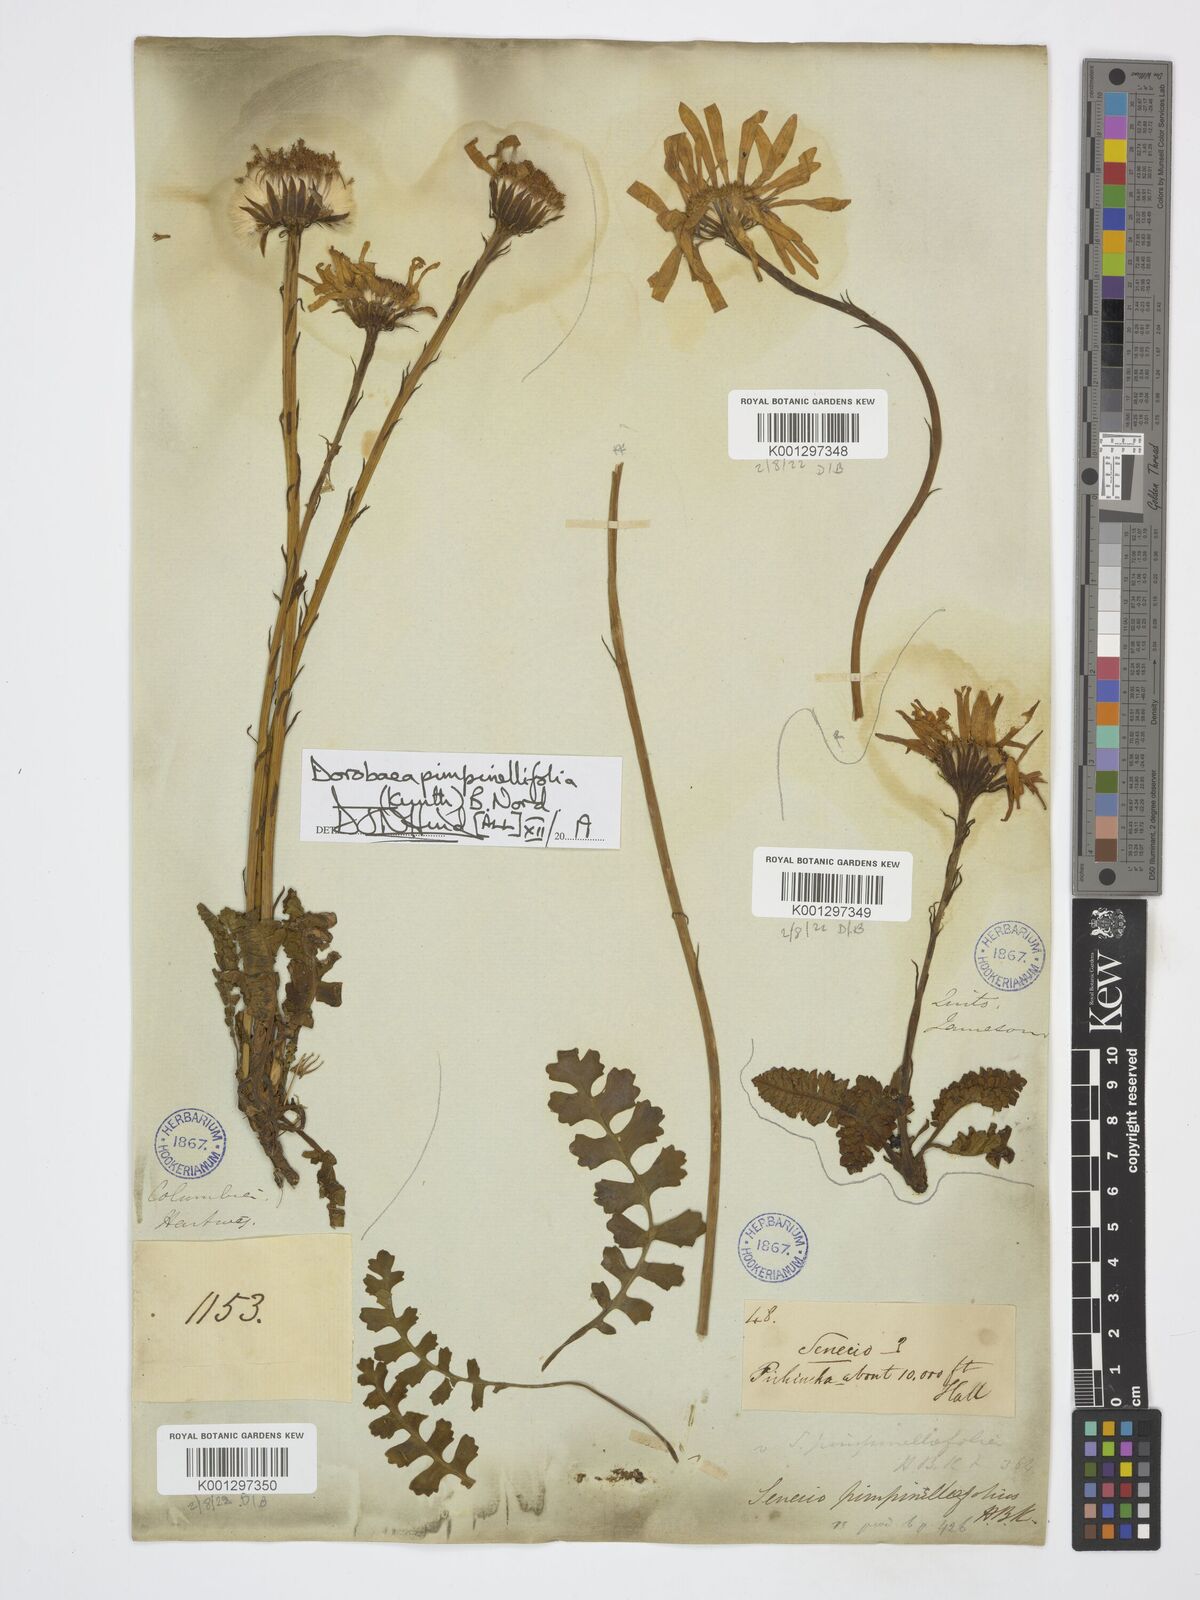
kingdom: Plantae
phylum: Tracheophyta
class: Magnoliopsida
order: Asterales
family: Asteraceae
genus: Dorobaea
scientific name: Dorobaea pimpinellifolia
